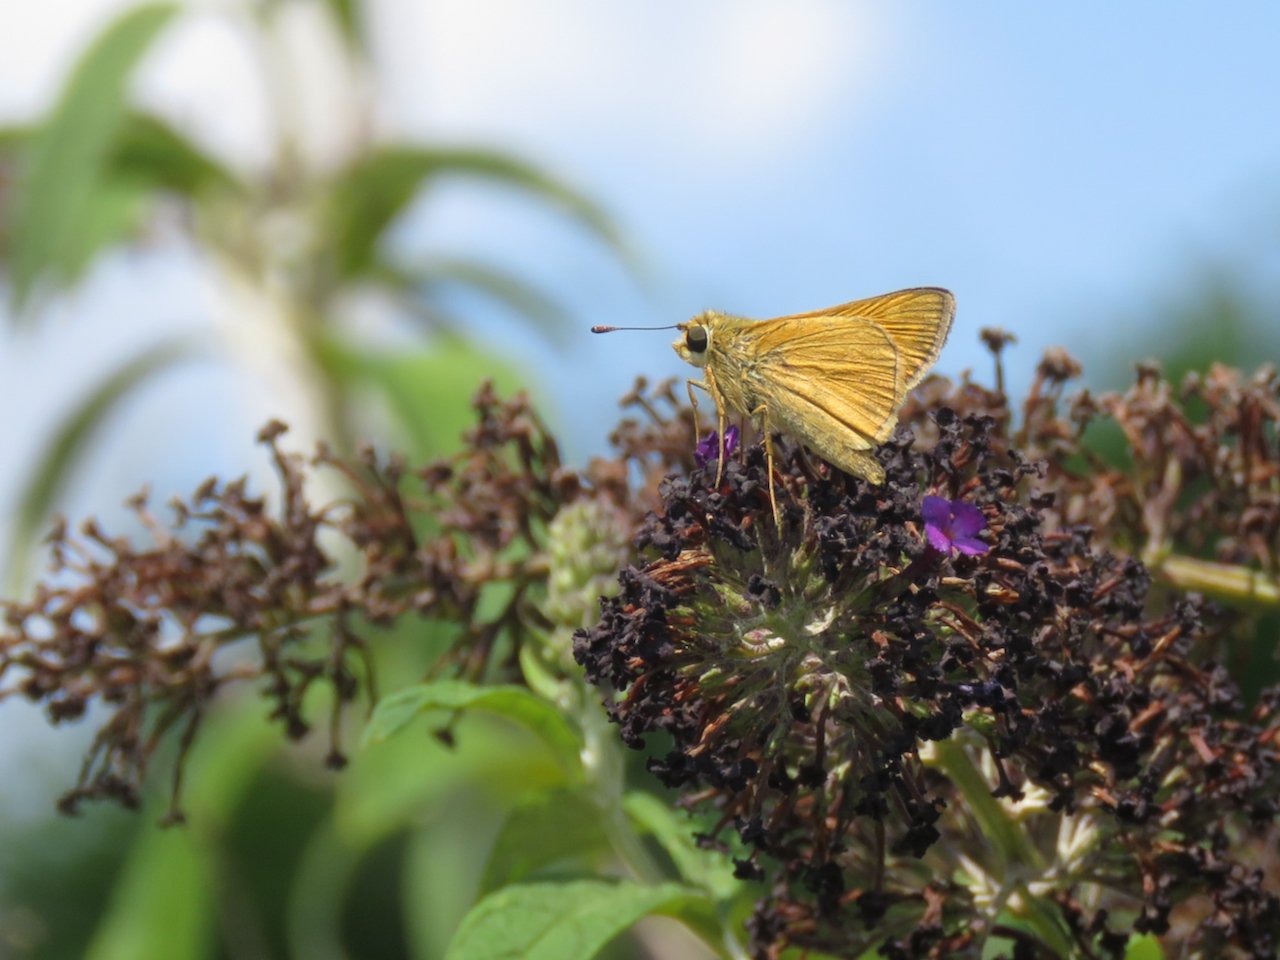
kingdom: Animalia
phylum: Arthropoda
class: Insecta
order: Lepidoptera
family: Hesperiidae
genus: Atrytone
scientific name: Atrytone delaware
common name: Delaware Skipper
